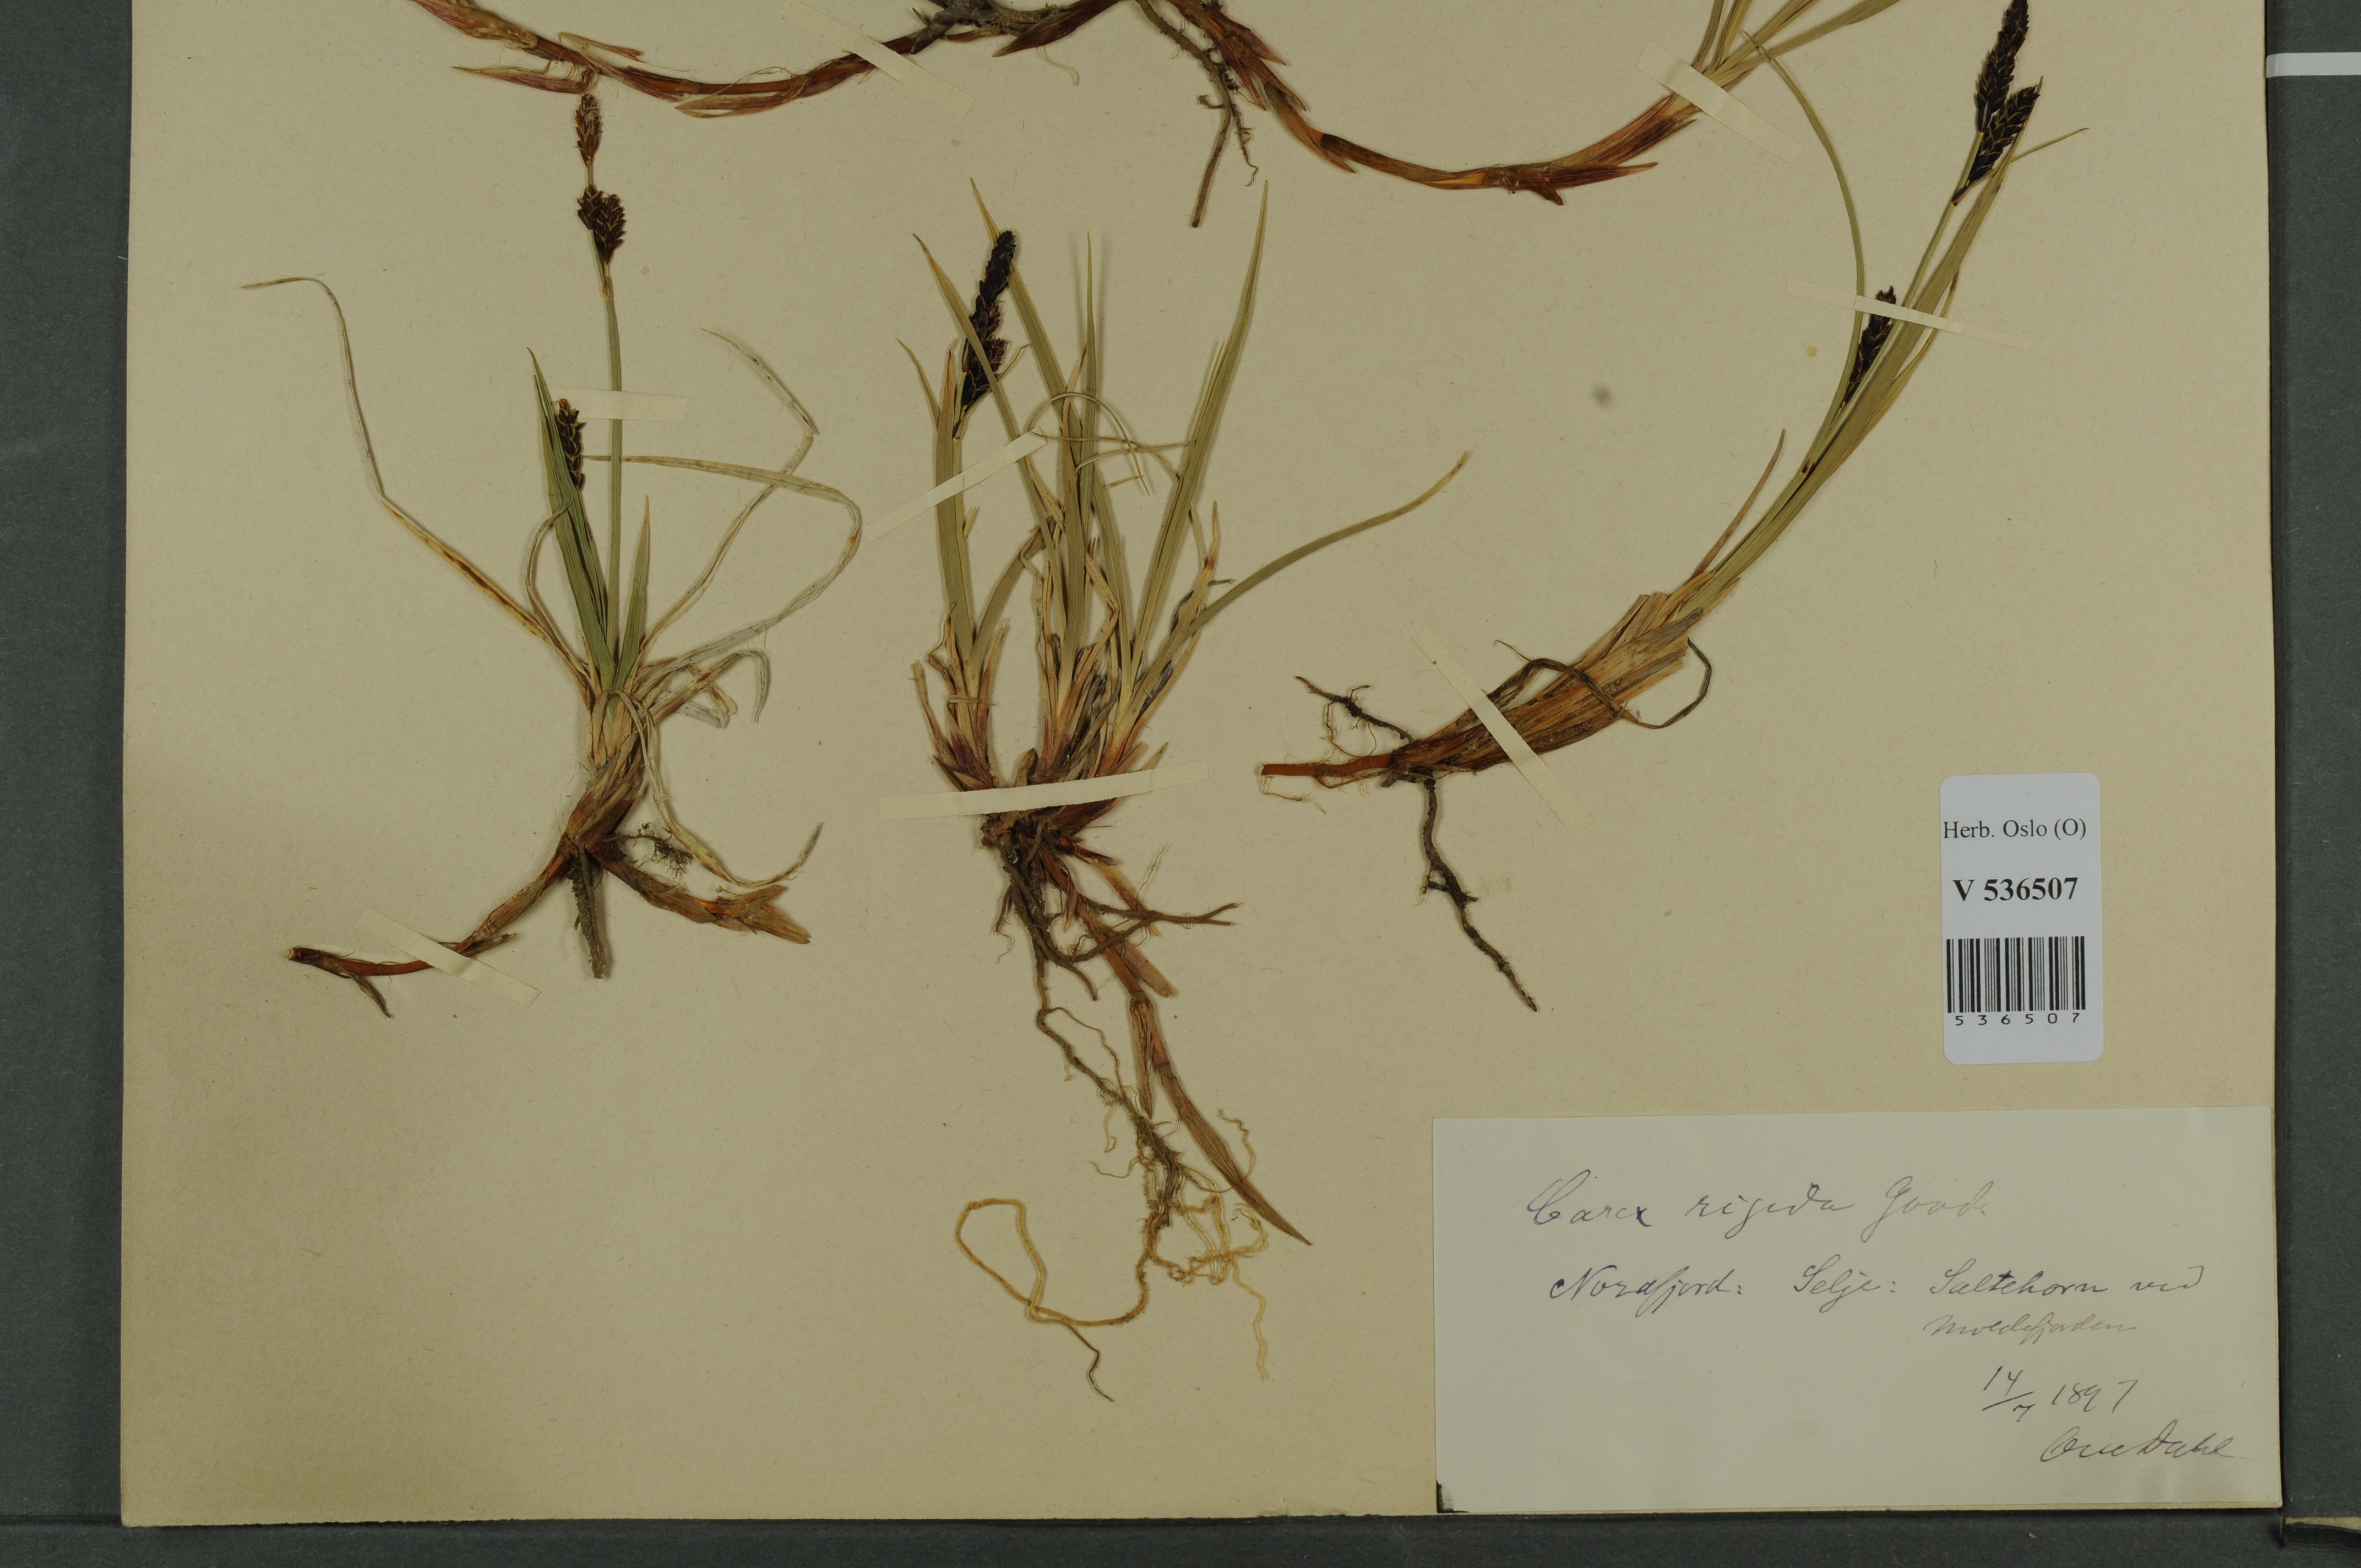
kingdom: Plantae
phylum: Tracheophyta
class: Liliopsida
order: Poales
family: Cyperaceae
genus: Carex
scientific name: Carex dacica
